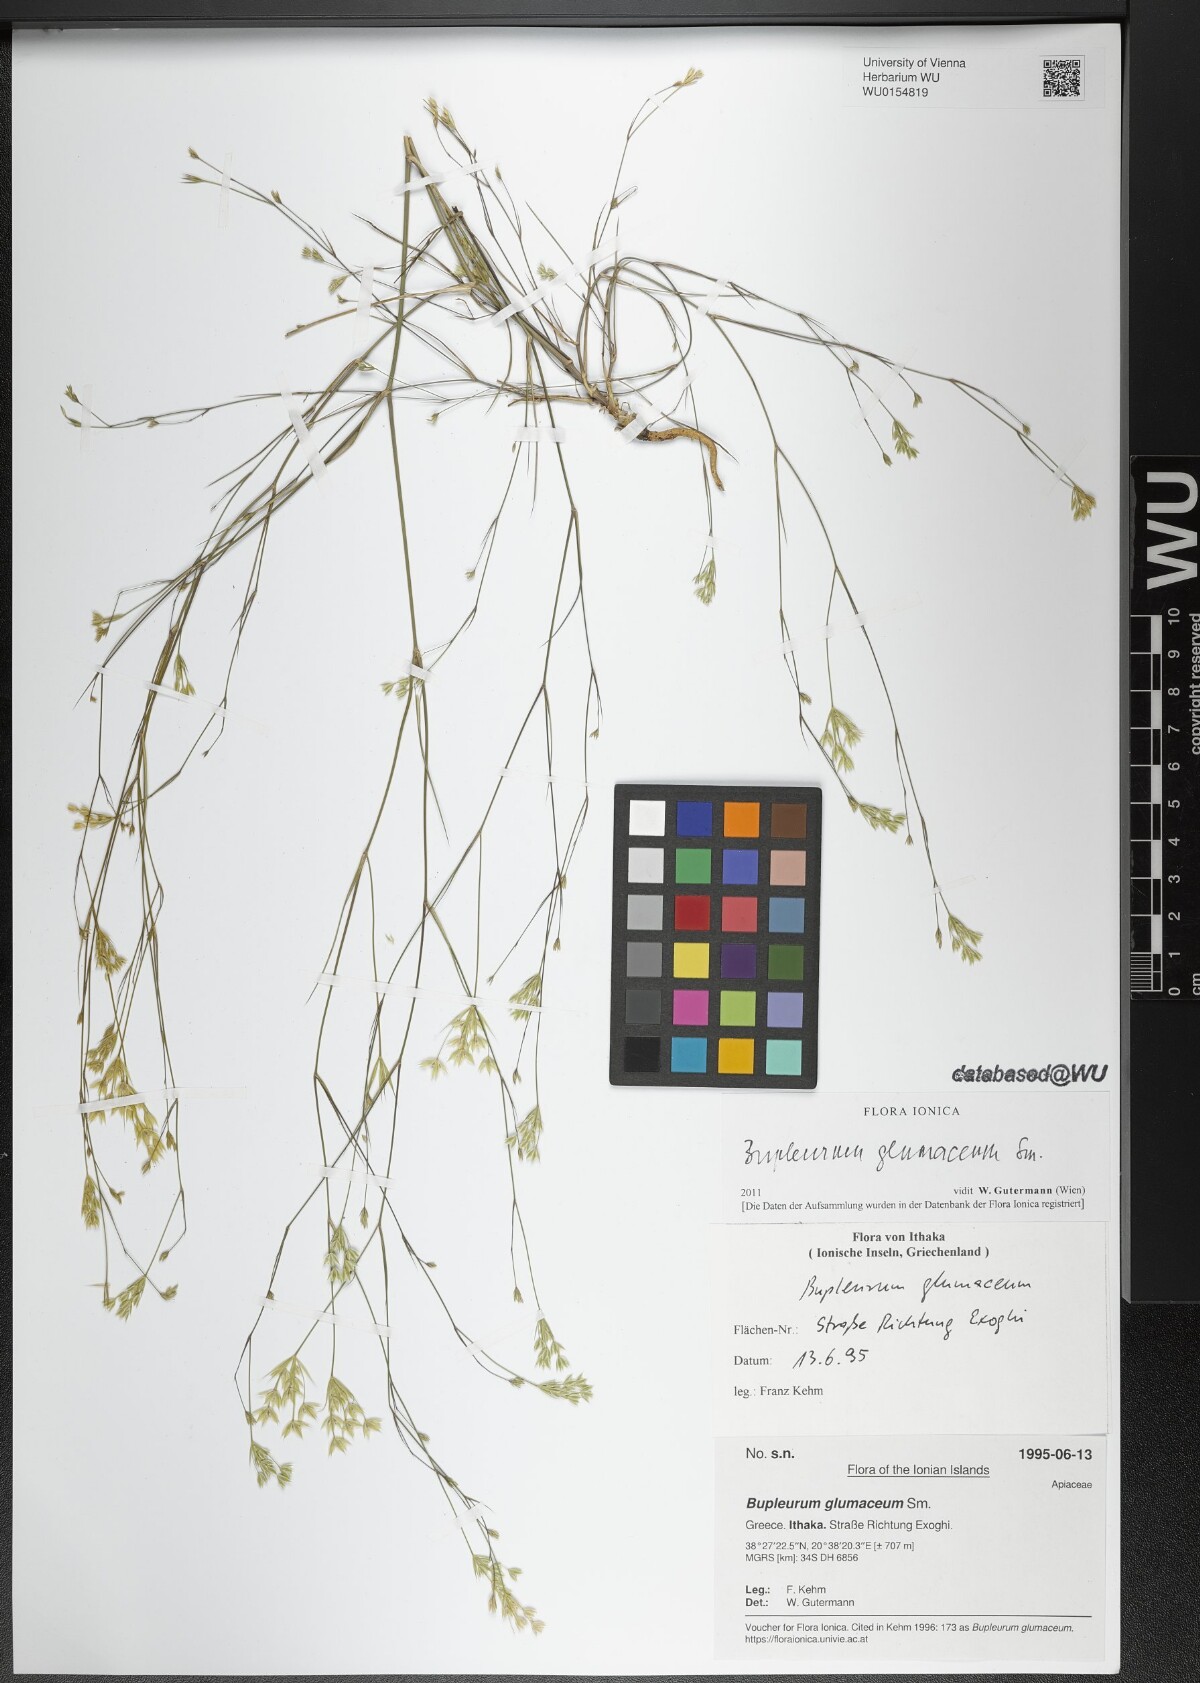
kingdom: Plantae
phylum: Tracheophyta
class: Magnoliopsida
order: Apiales
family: Apiaceae
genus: Bupleurum
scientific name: Bupleurum glumaceum
